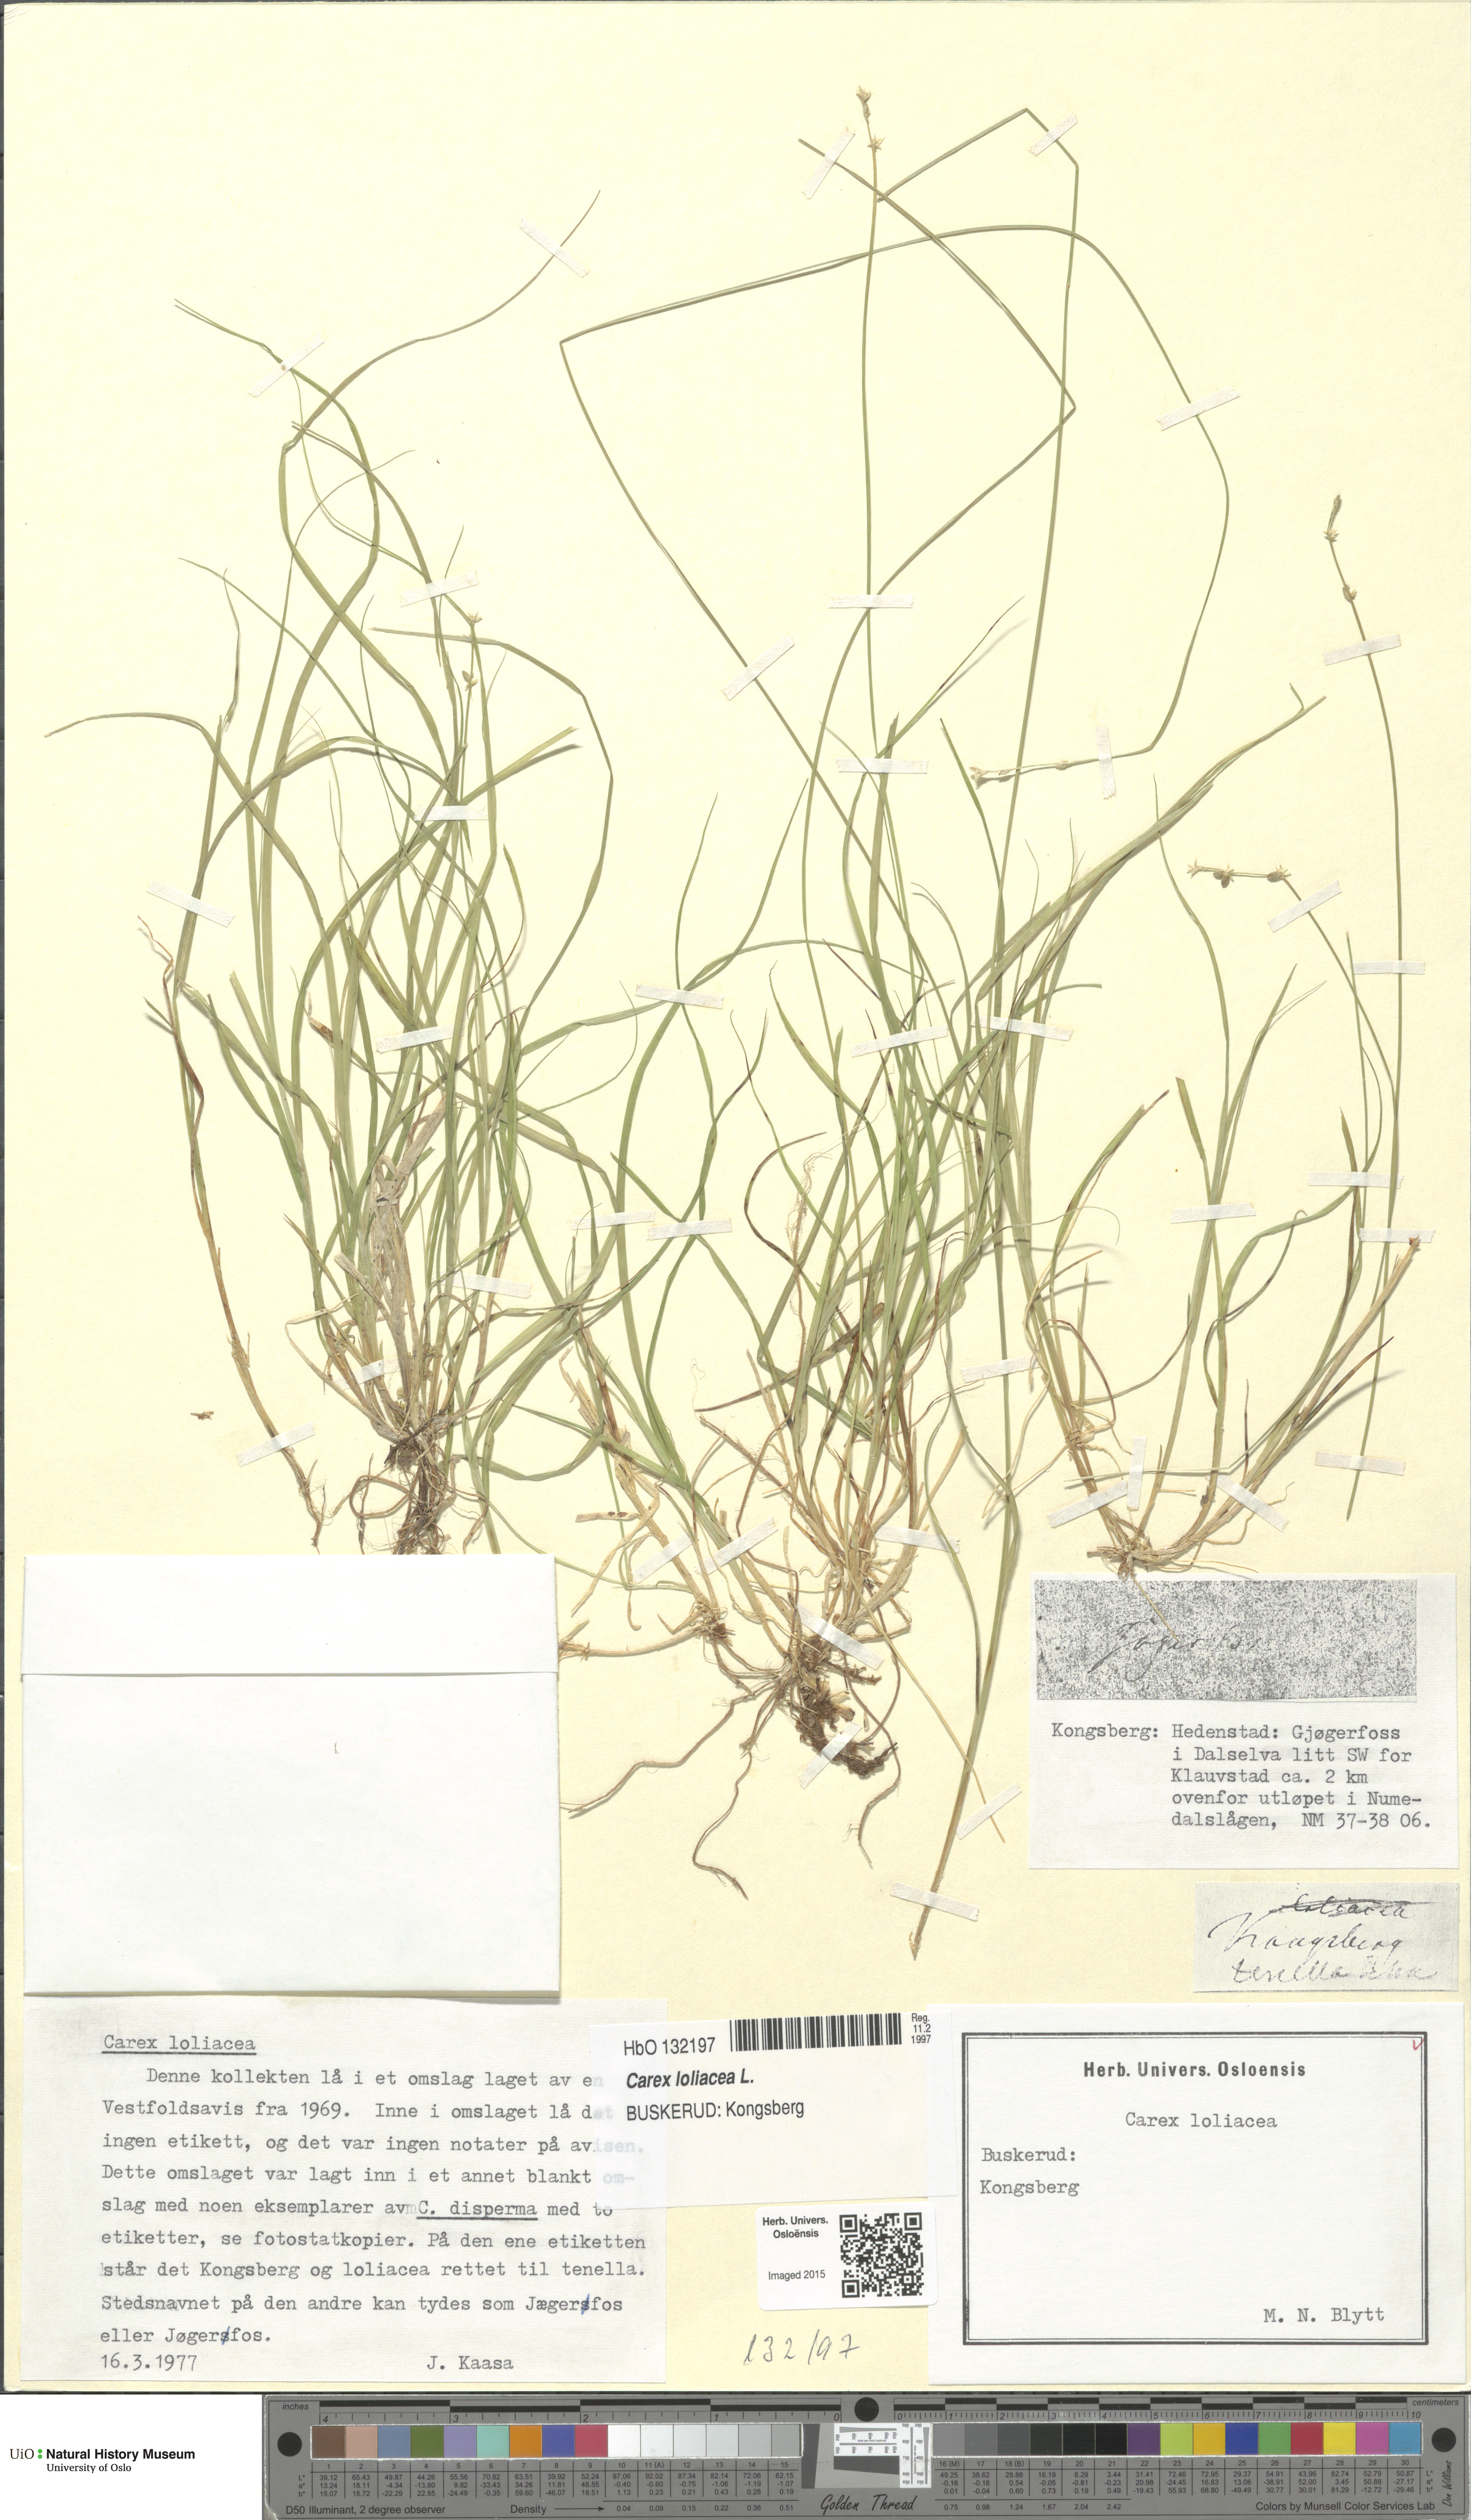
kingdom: Plantae
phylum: Tracheophyta
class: Liliopsida
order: Poales
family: Cyperaceae
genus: Carex
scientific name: Carex loliacea
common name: Ryegrass sedge
